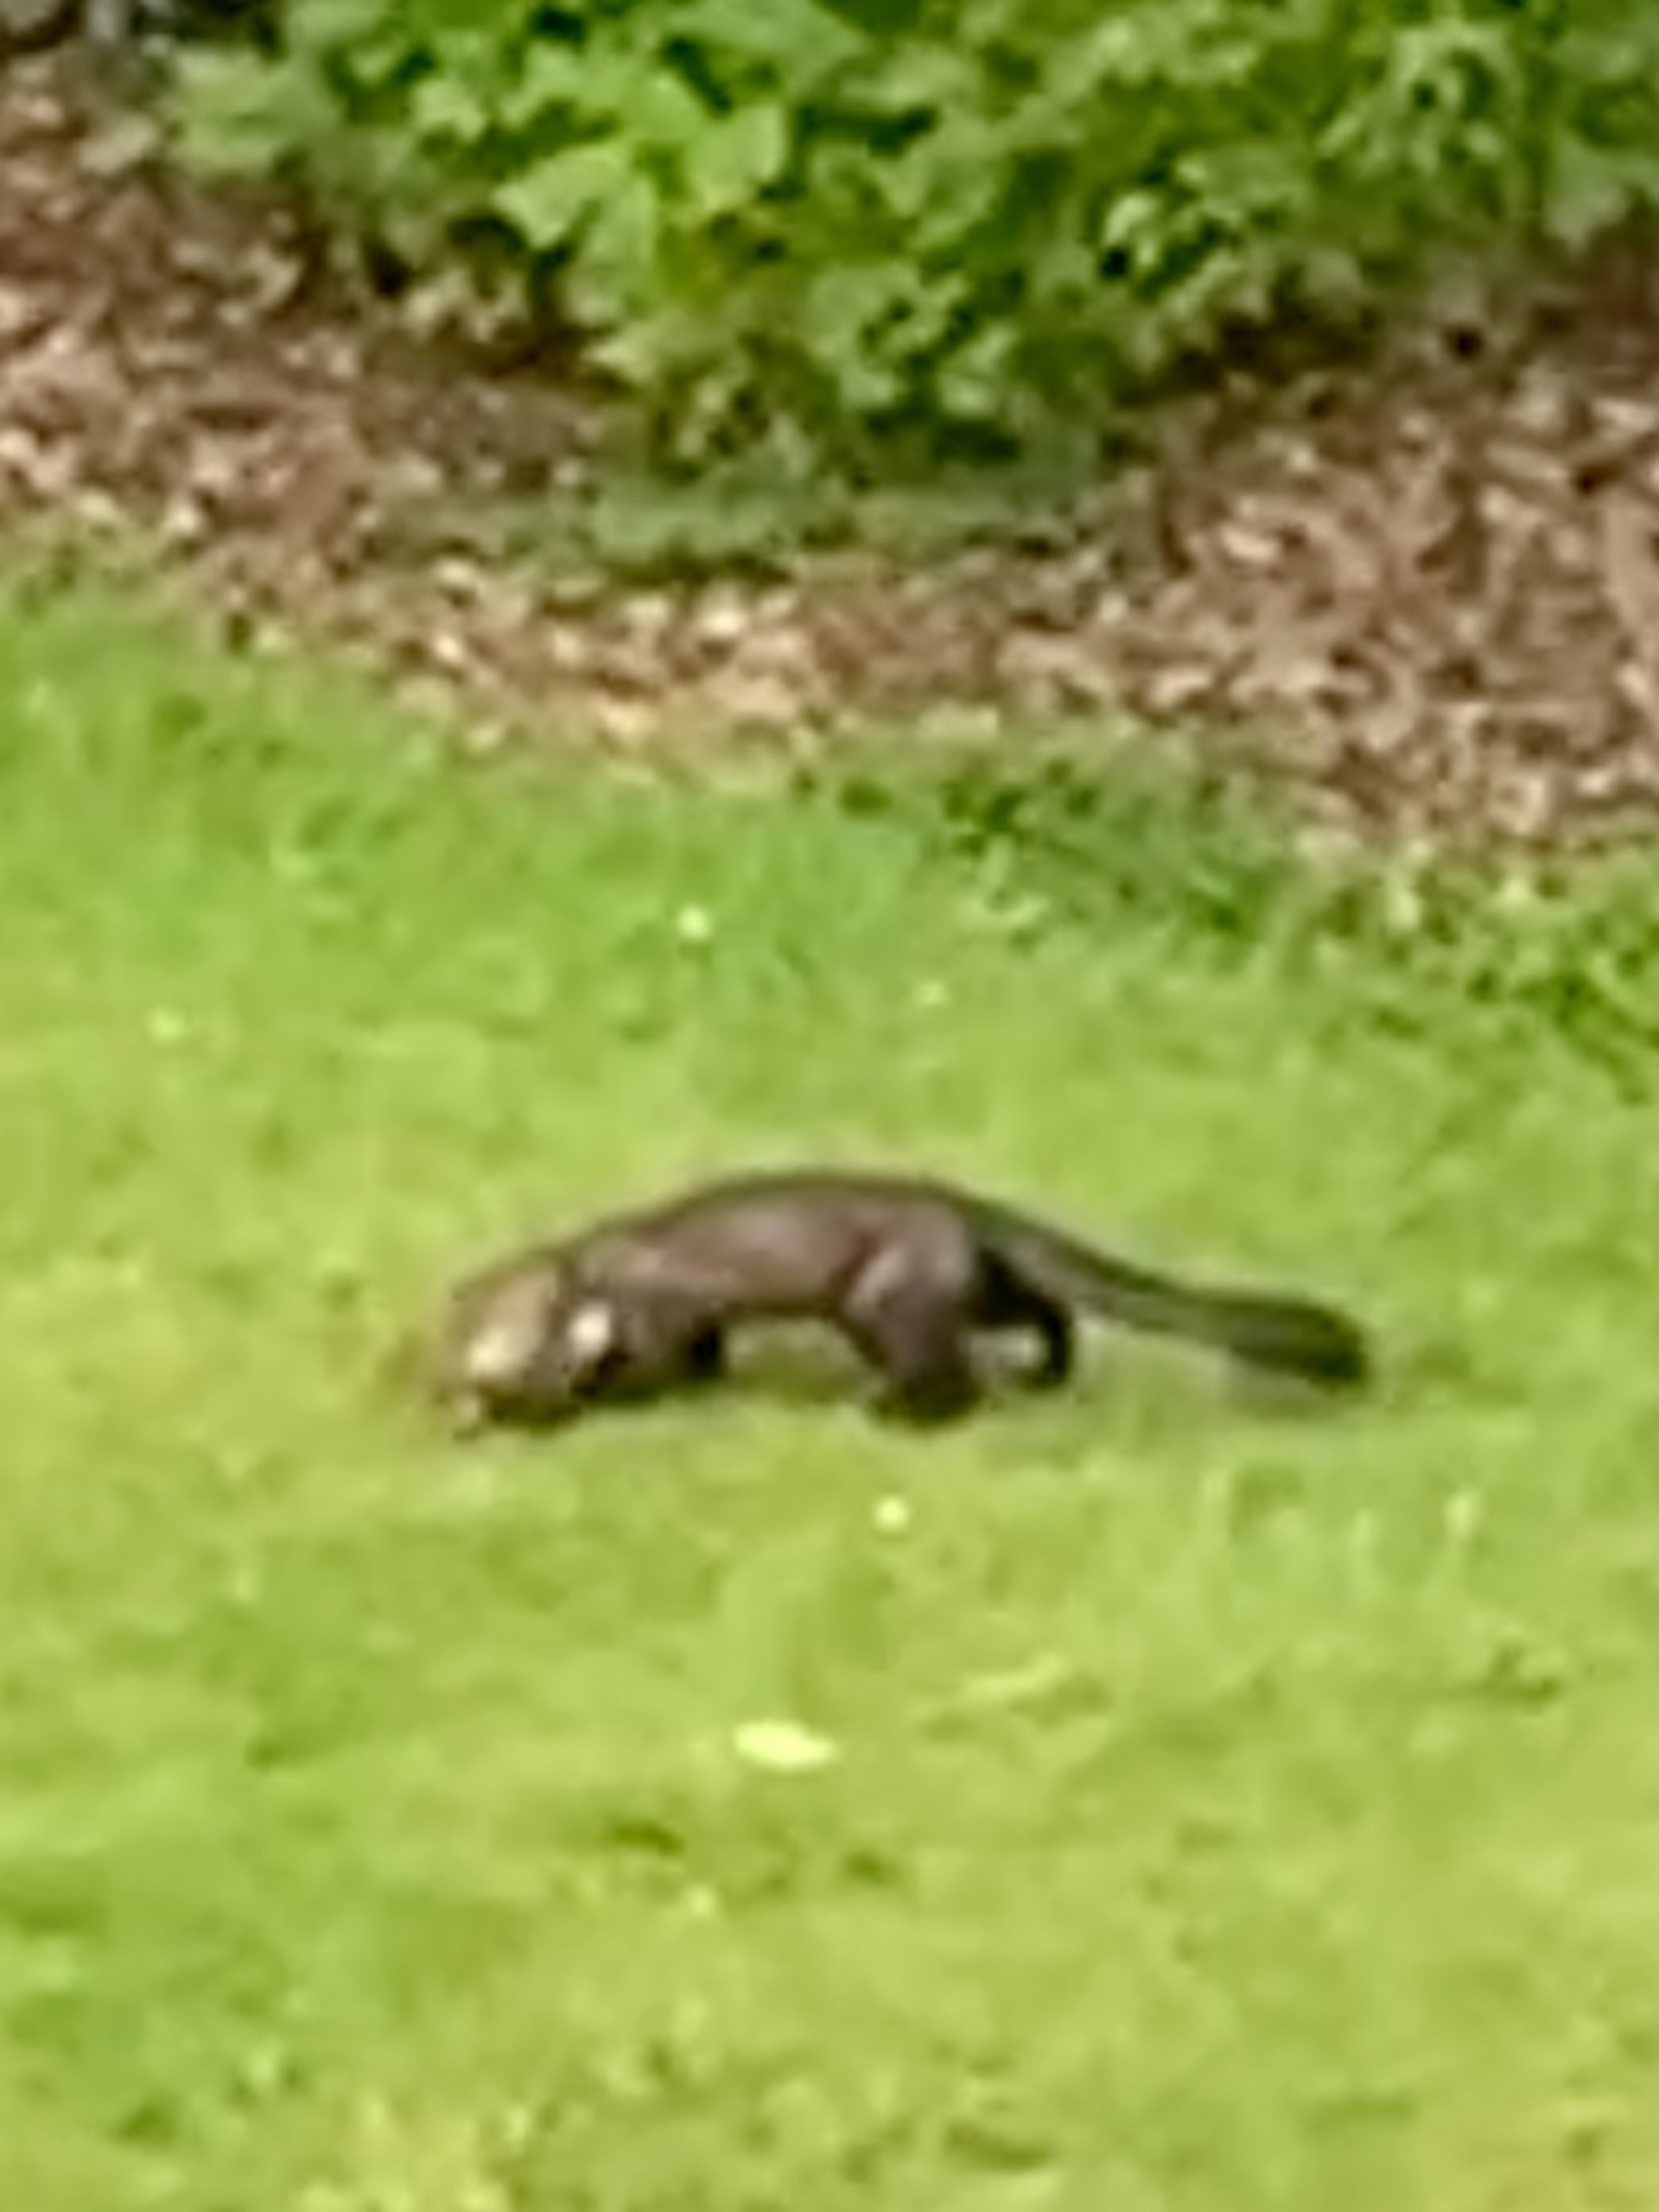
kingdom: Animalia
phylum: Chordata
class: Mammalia
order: Carnivora
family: Mustelidae
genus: Martes
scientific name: Martes foina
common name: Husmår
